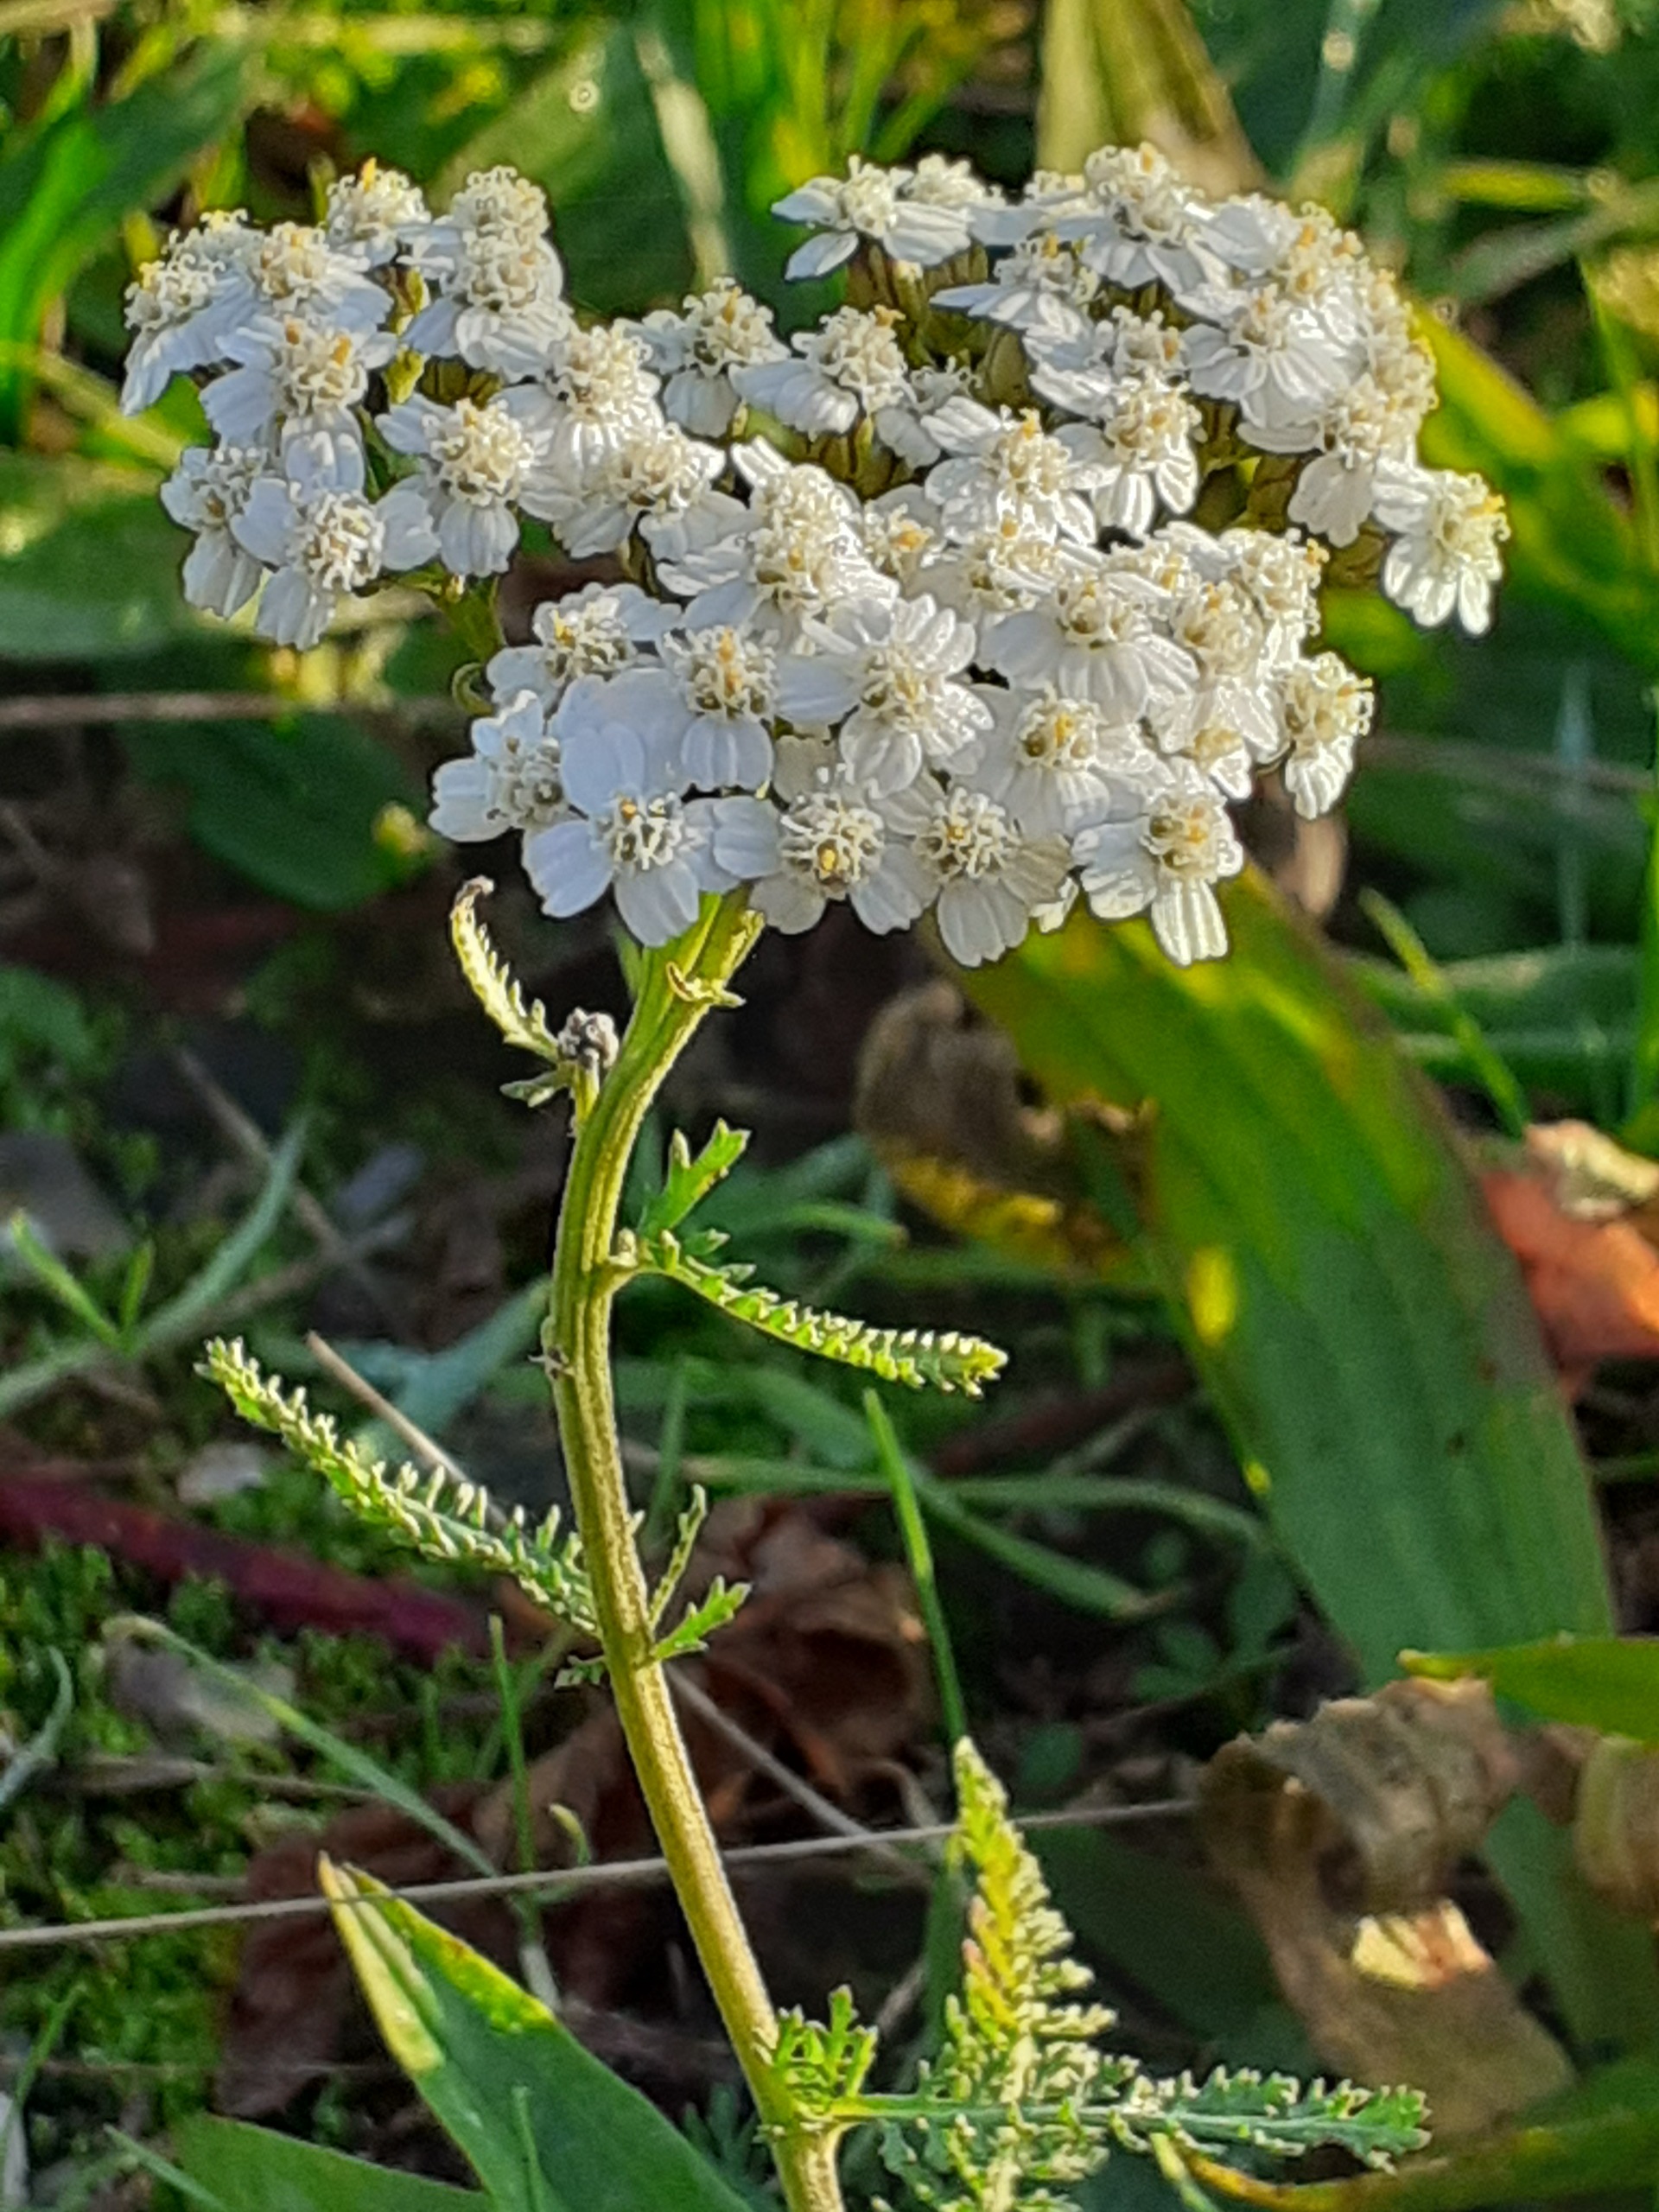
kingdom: Plantae
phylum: Tracheophyta
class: Magnoliopsida
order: Asterales
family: Asteraceae
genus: Achillea
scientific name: Achillea millefolium
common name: Almindelig røllike
